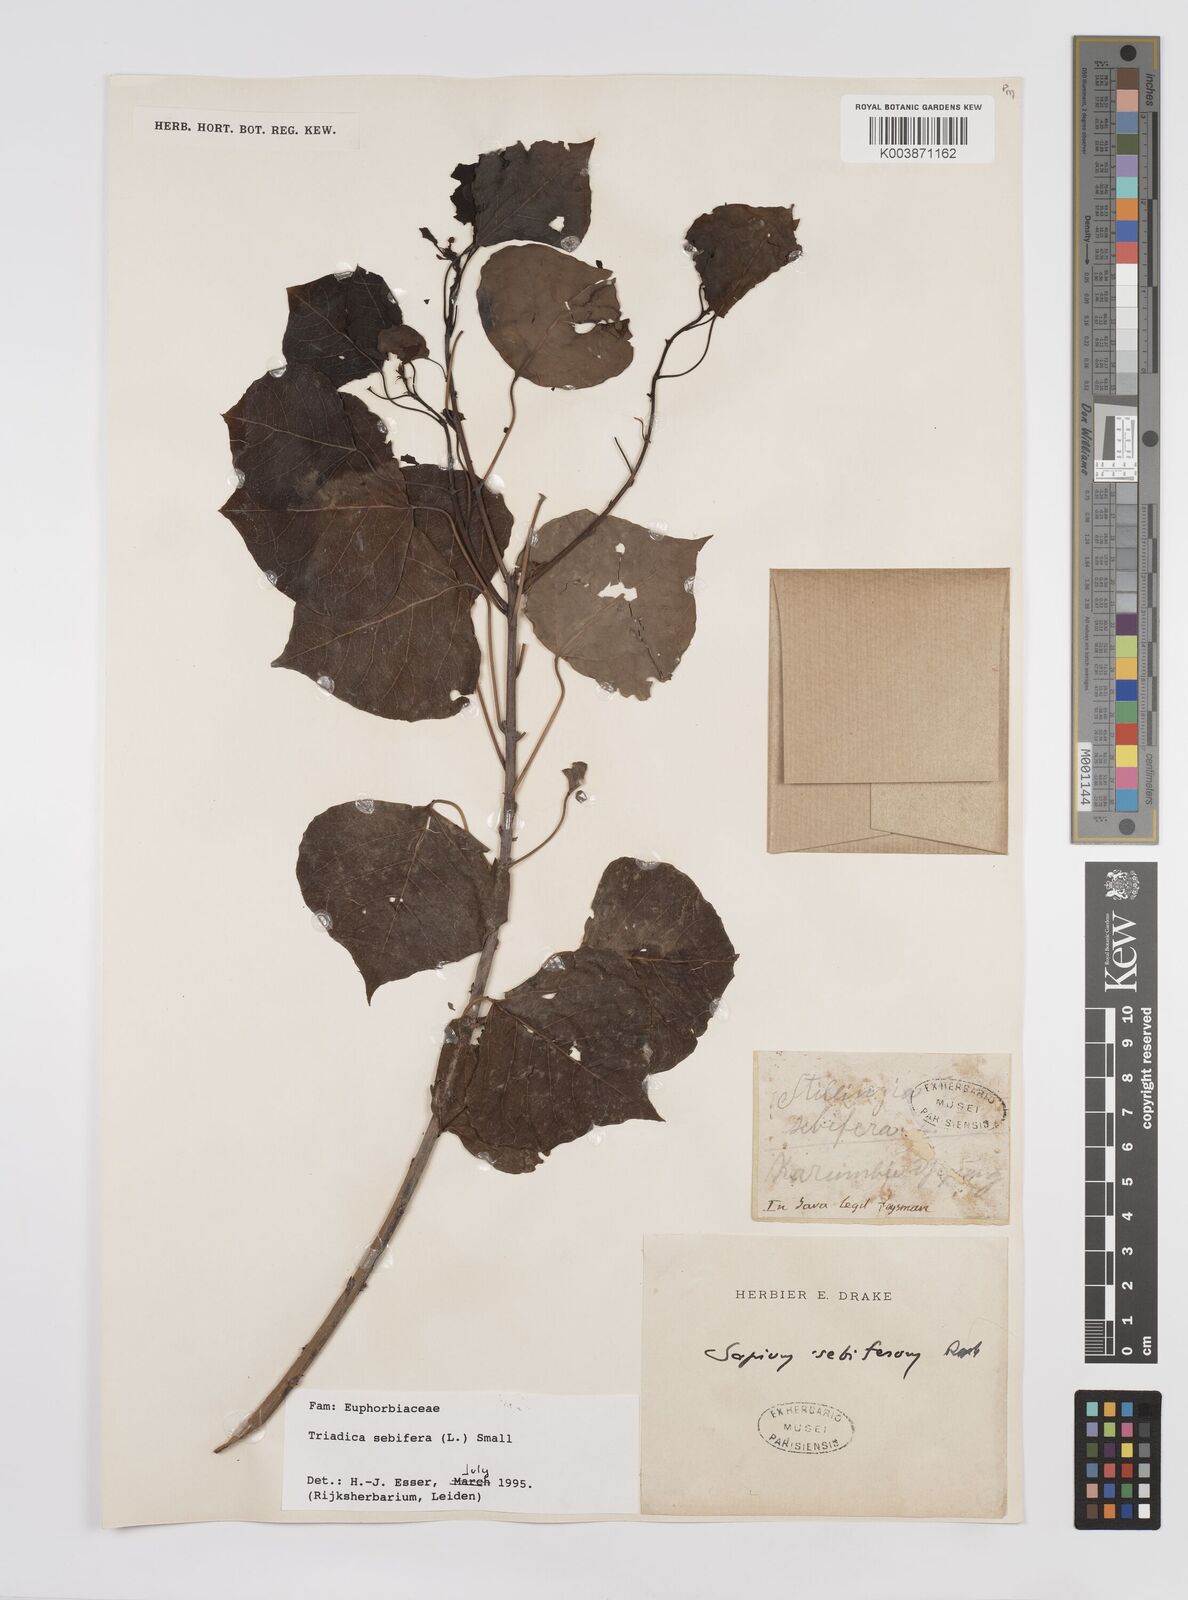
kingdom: Plantae
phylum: Tracheophyta
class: Magnoliopsida
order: Malpighiales
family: Euphorbiaceae
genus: Triadica
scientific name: Triadica sebifera
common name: Chinese tallow
